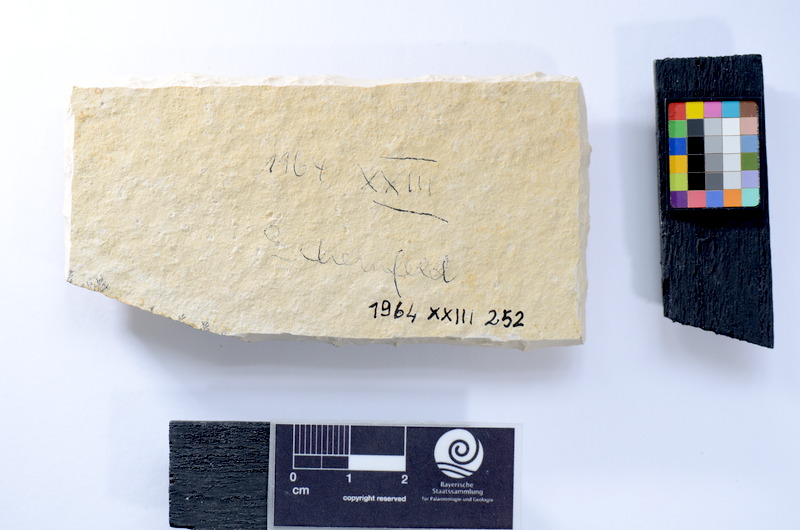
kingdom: Animalia
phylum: Chordata
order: Salmoniformes
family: Orthogonikleithridae
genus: Leptolepides
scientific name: Leptolepides
